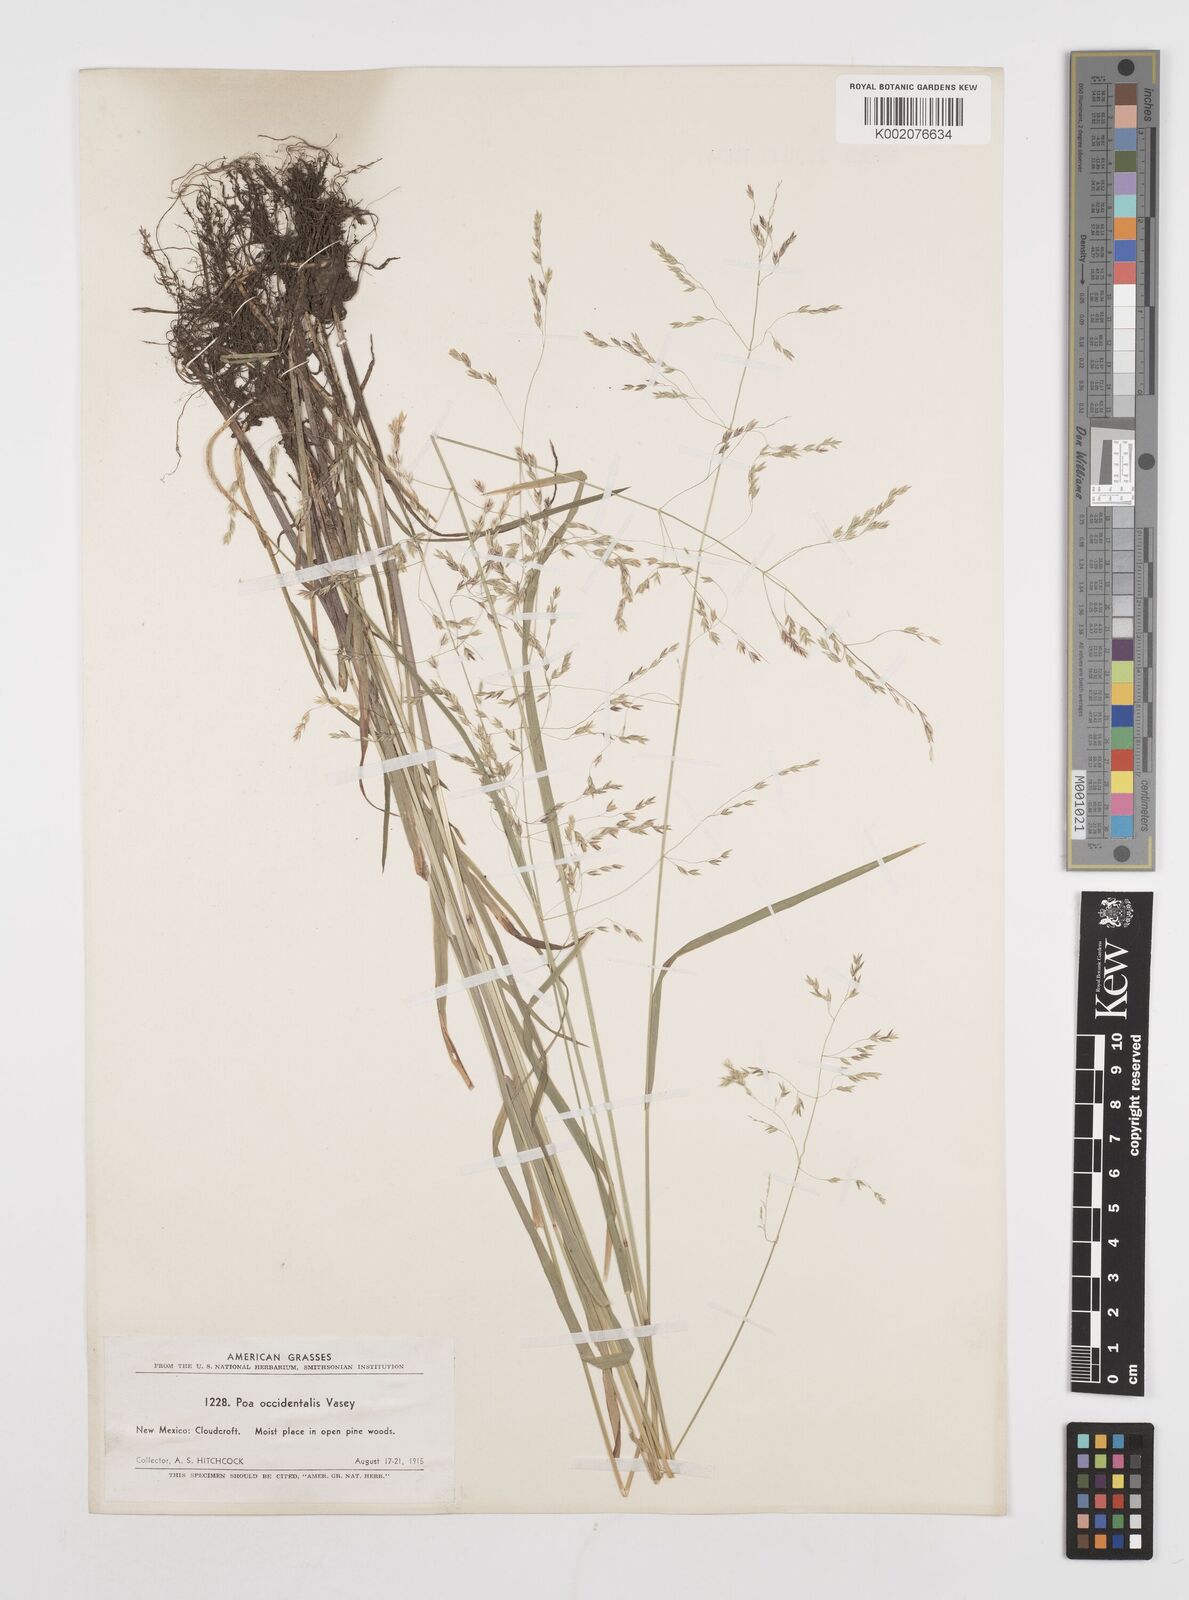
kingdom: Plantae
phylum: Tracheophyta
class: Liliopsida
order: Poales
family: Poaceae
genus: Poa
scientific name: Poa occidentalis
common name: New mexican bluegrass
